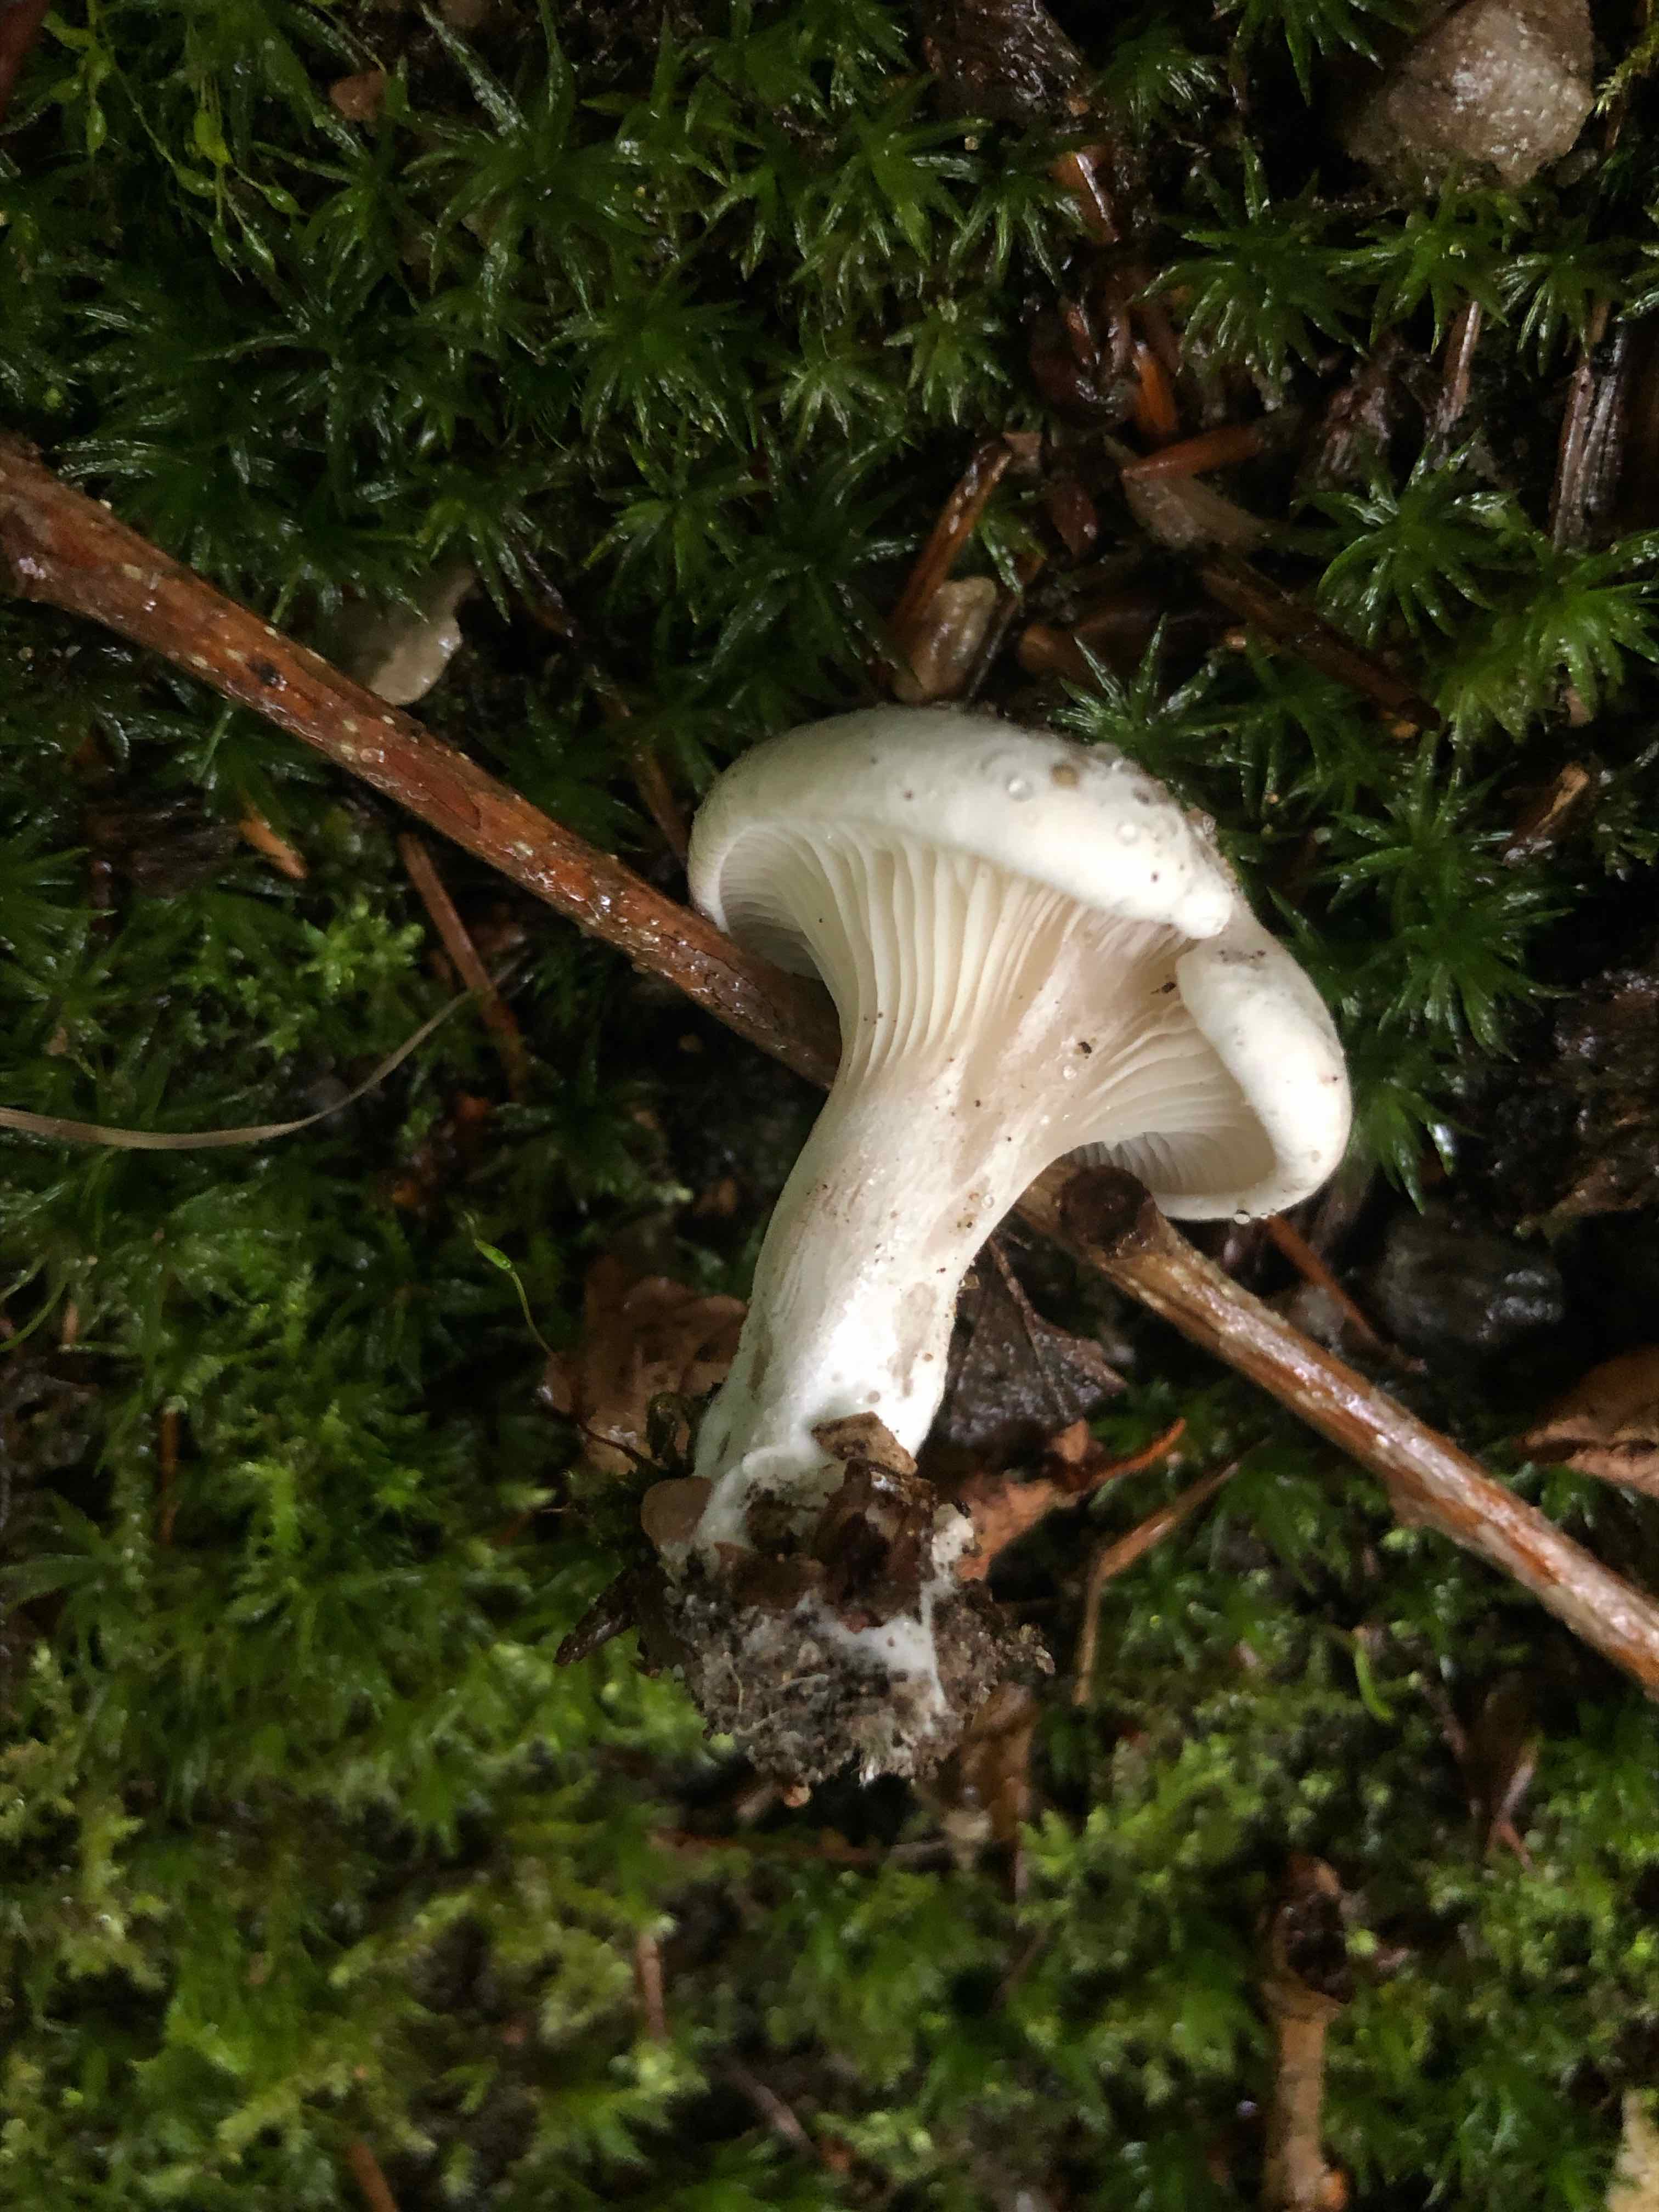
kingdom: Fungi
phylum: Basidiomycota
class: Agaricomycetes
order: Agaricales
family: Entolomataceae
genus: Clitopilus
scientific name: Clitopilus prunulus
